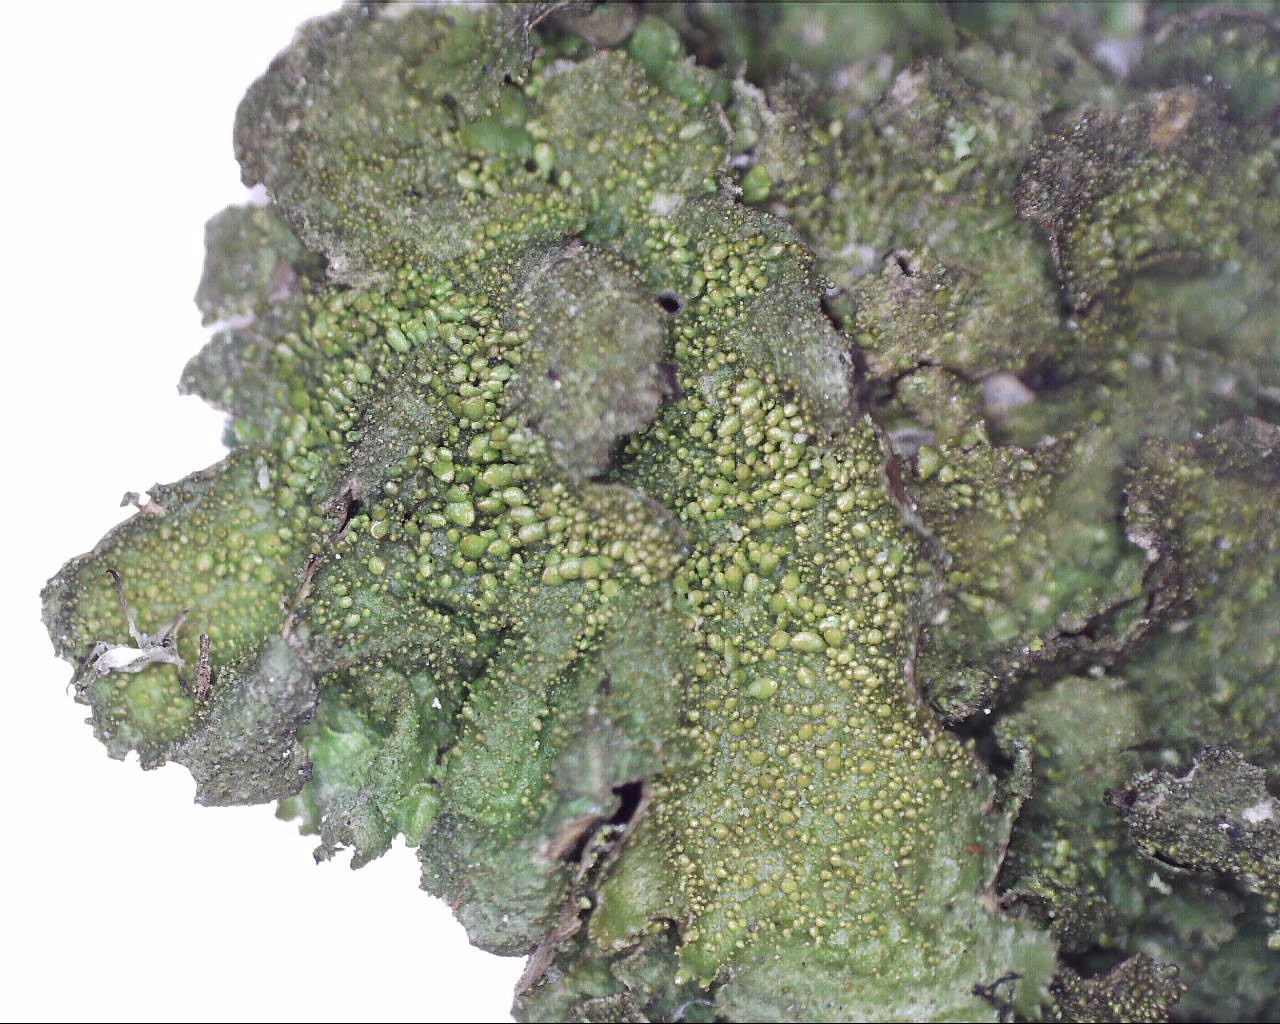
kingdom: Fungi
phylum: Ascomycota
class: Lecanoromycetes
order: Lecanorales
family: Parmeliaceae
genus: Melanohalea
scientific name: Melanohalea exasperatula
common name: kølle-skållav
